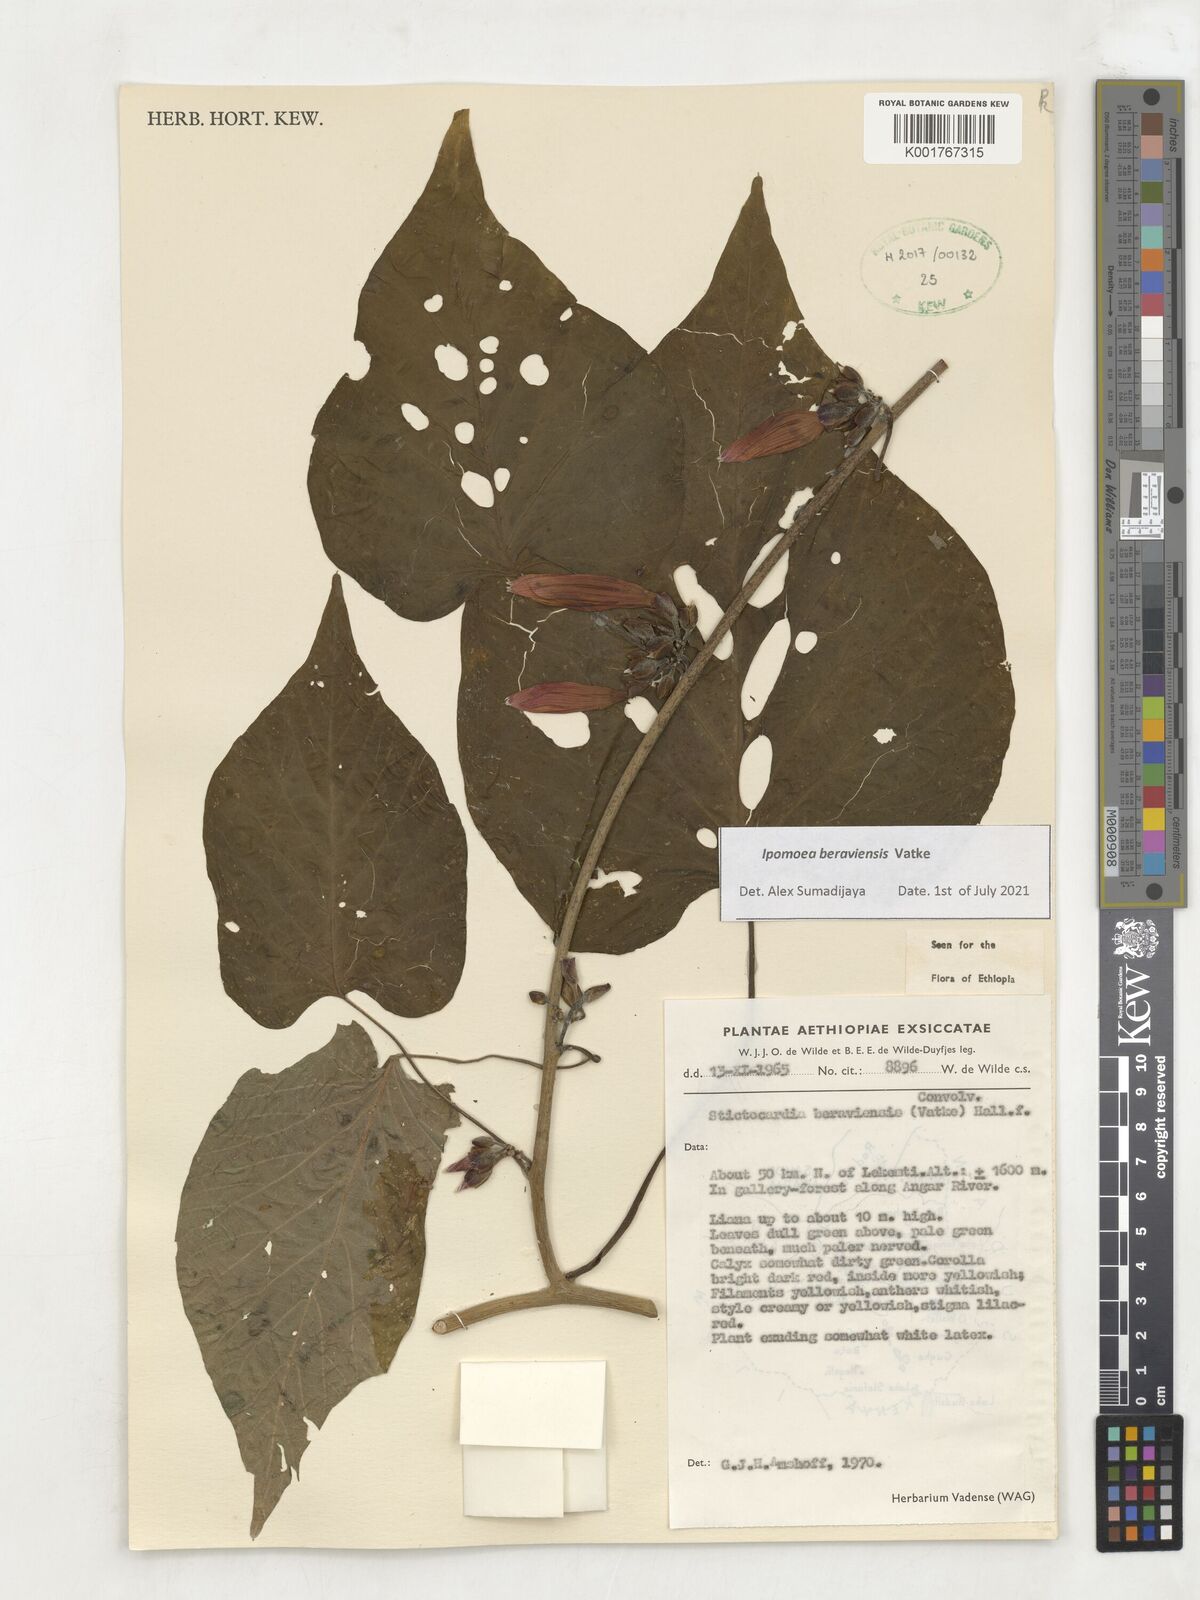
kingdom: Plantae
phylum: Tracheophyta
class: Magnoliopsida
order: Solanales
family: Convolvulaceae
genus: Stictocardia
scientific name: Stictocardia beraviensis
